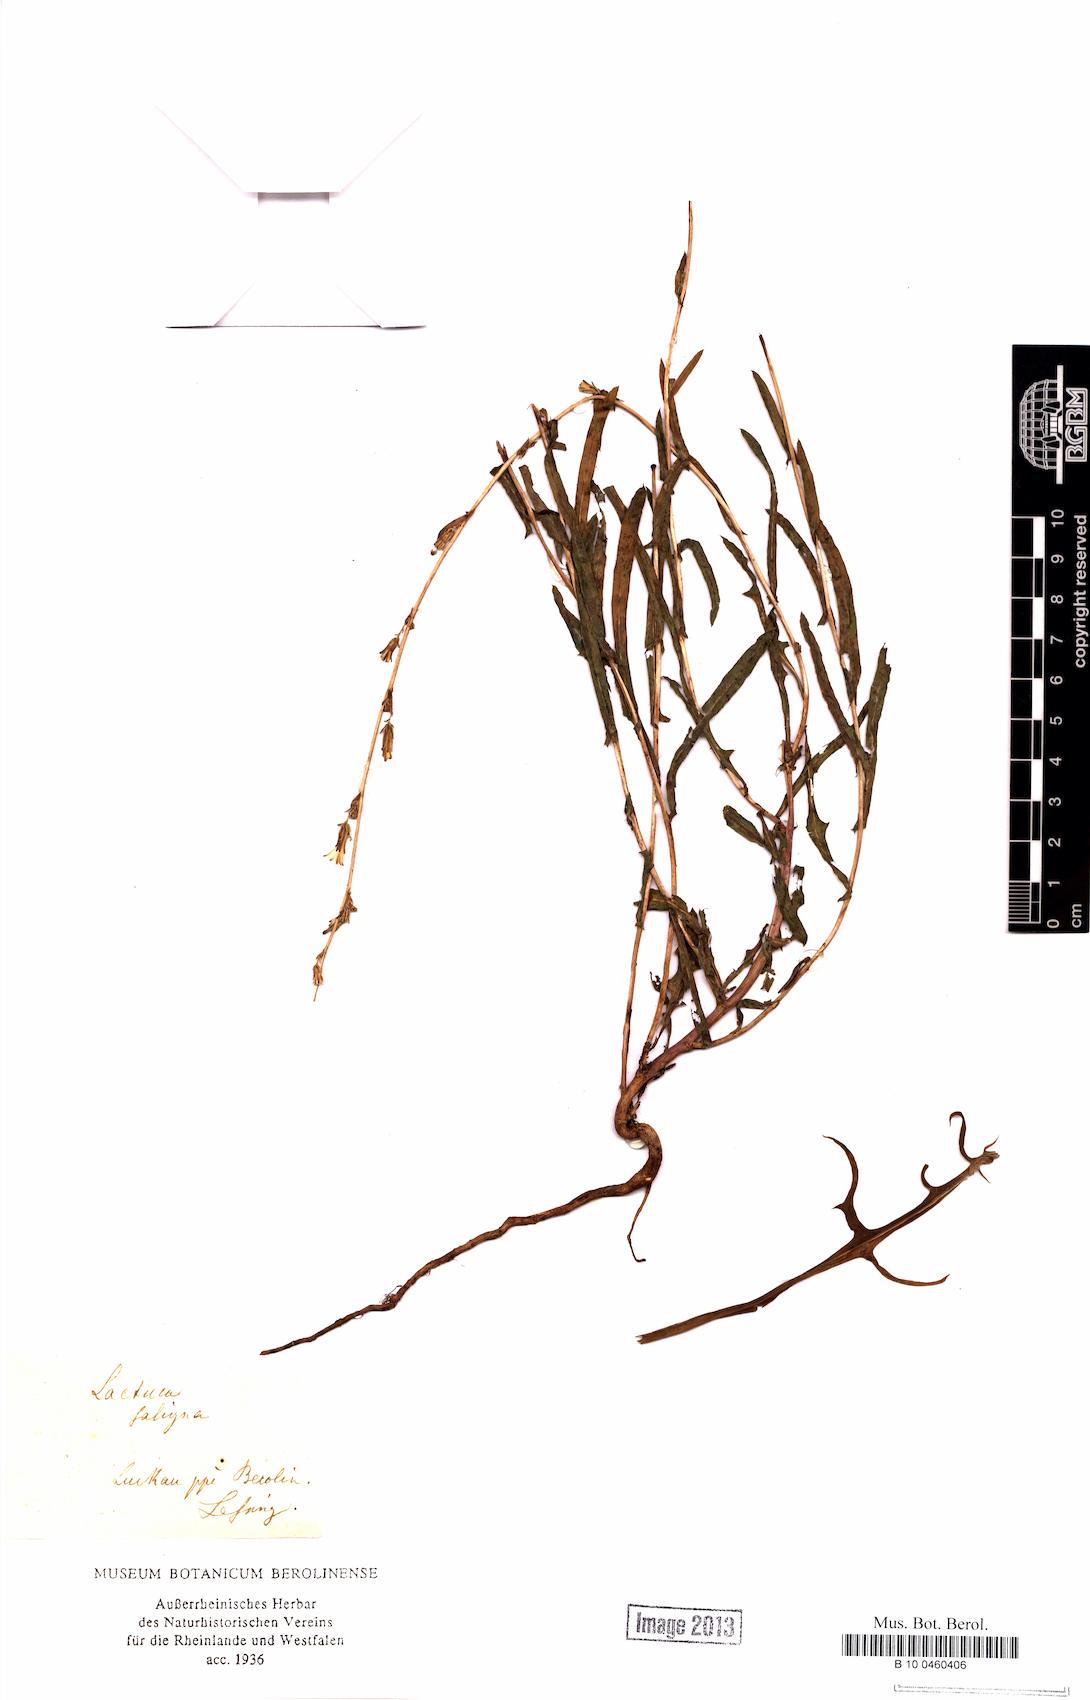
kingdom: Plantae
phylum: Tracheophyta
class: Magnoliopsida
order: Asterales
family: Asteraceae
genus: Lactuca
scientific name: Lactuca saligna
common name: Wild lettuce
